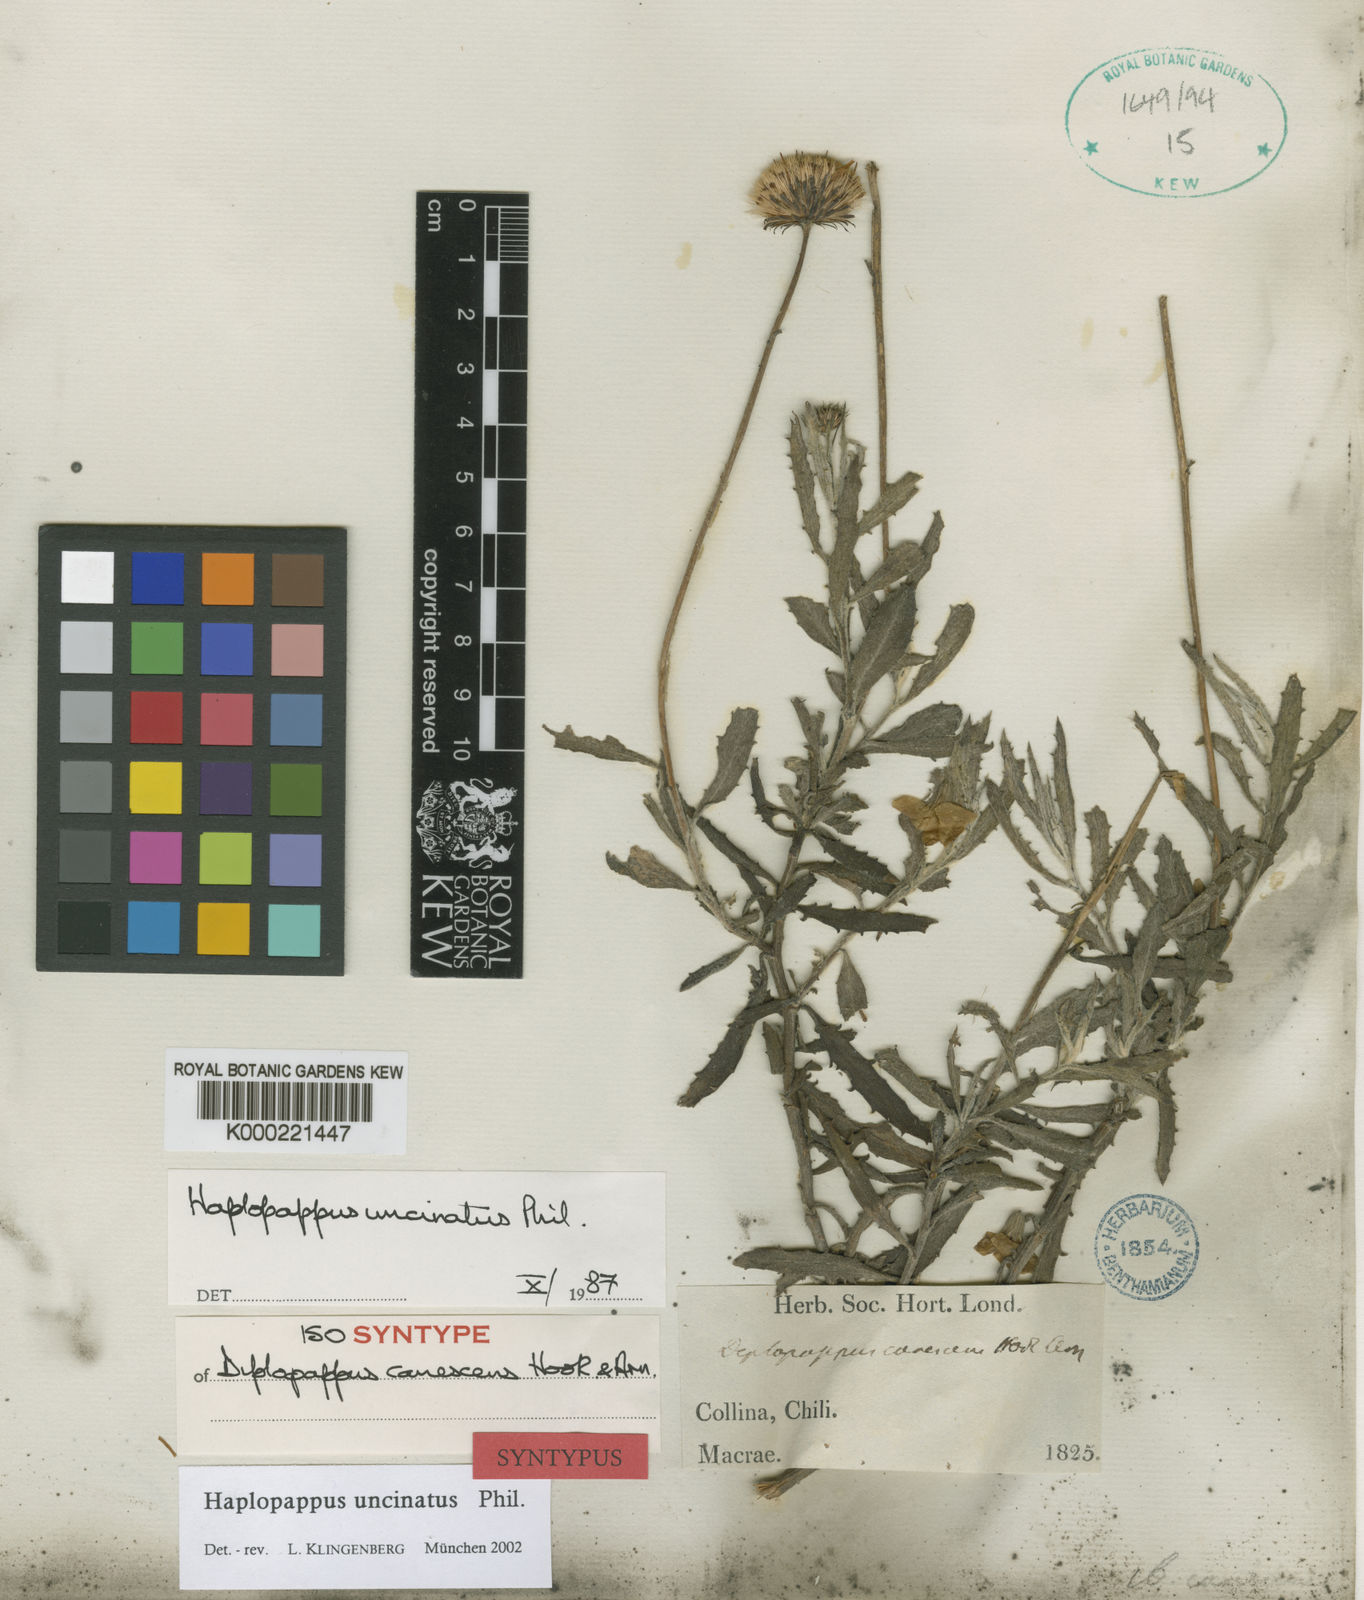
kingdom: Plantae
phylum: Tracheophyta
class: Magnoliopsida
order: Asterales
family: Asteraceae
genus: Haplopappus
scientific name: Haplopappus uncinatus
